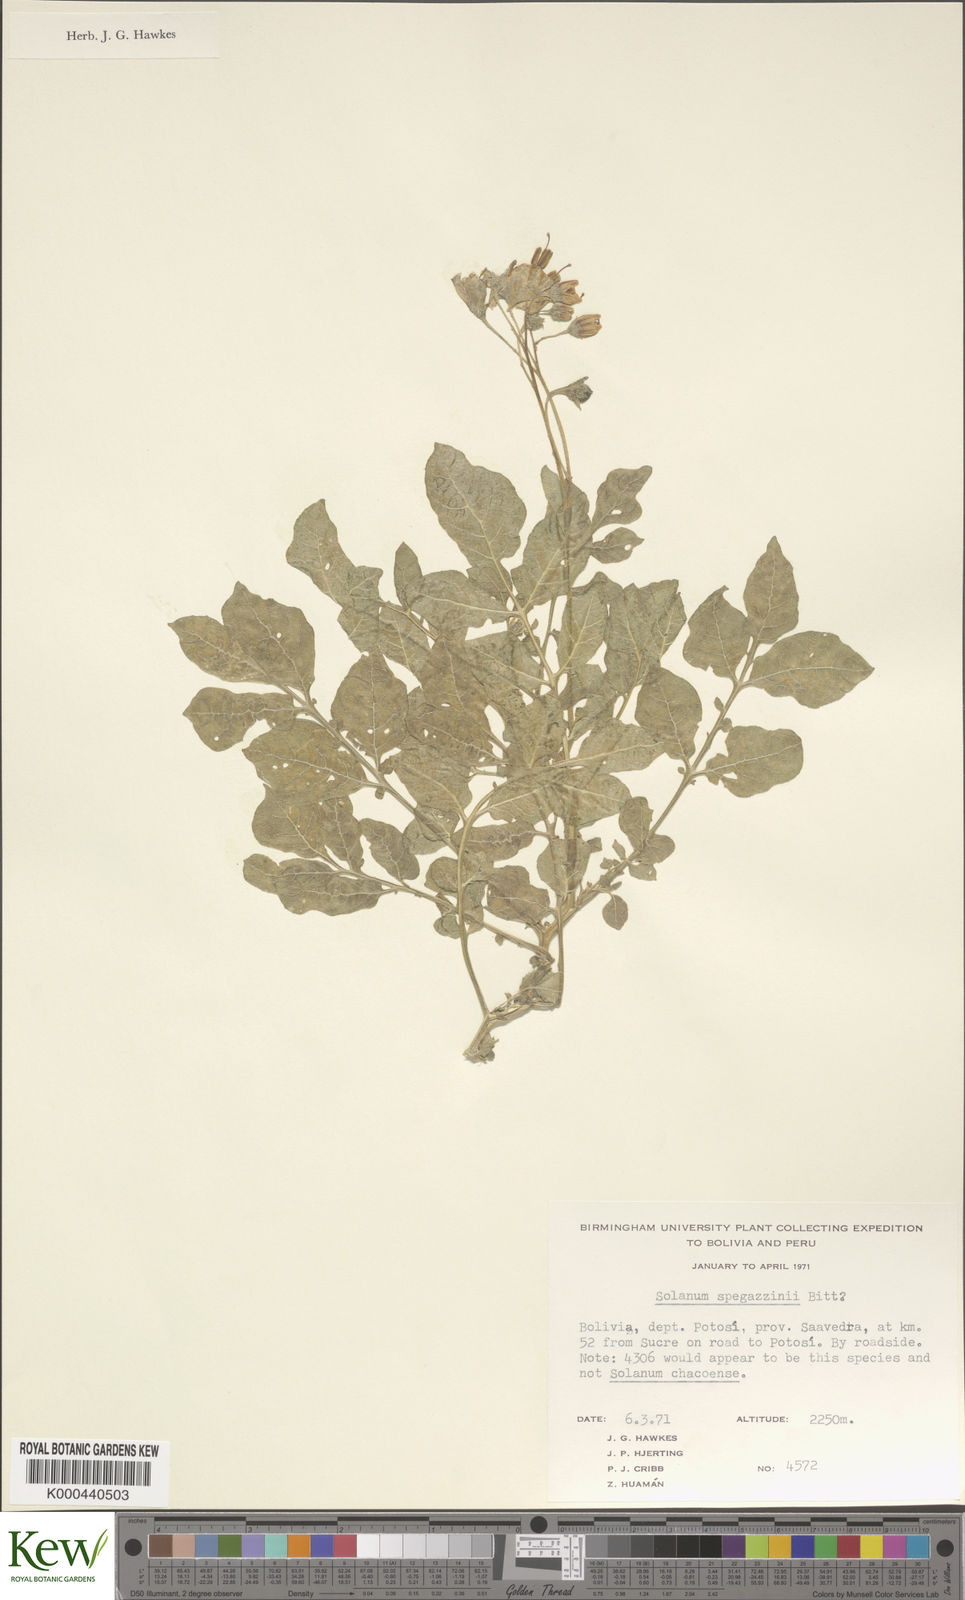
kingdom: Plantae
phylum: Tracheophyta
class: Magnoliopsida
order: Solanales
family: Solanaceae
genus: Solanum
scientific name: Solanum brevicaule
